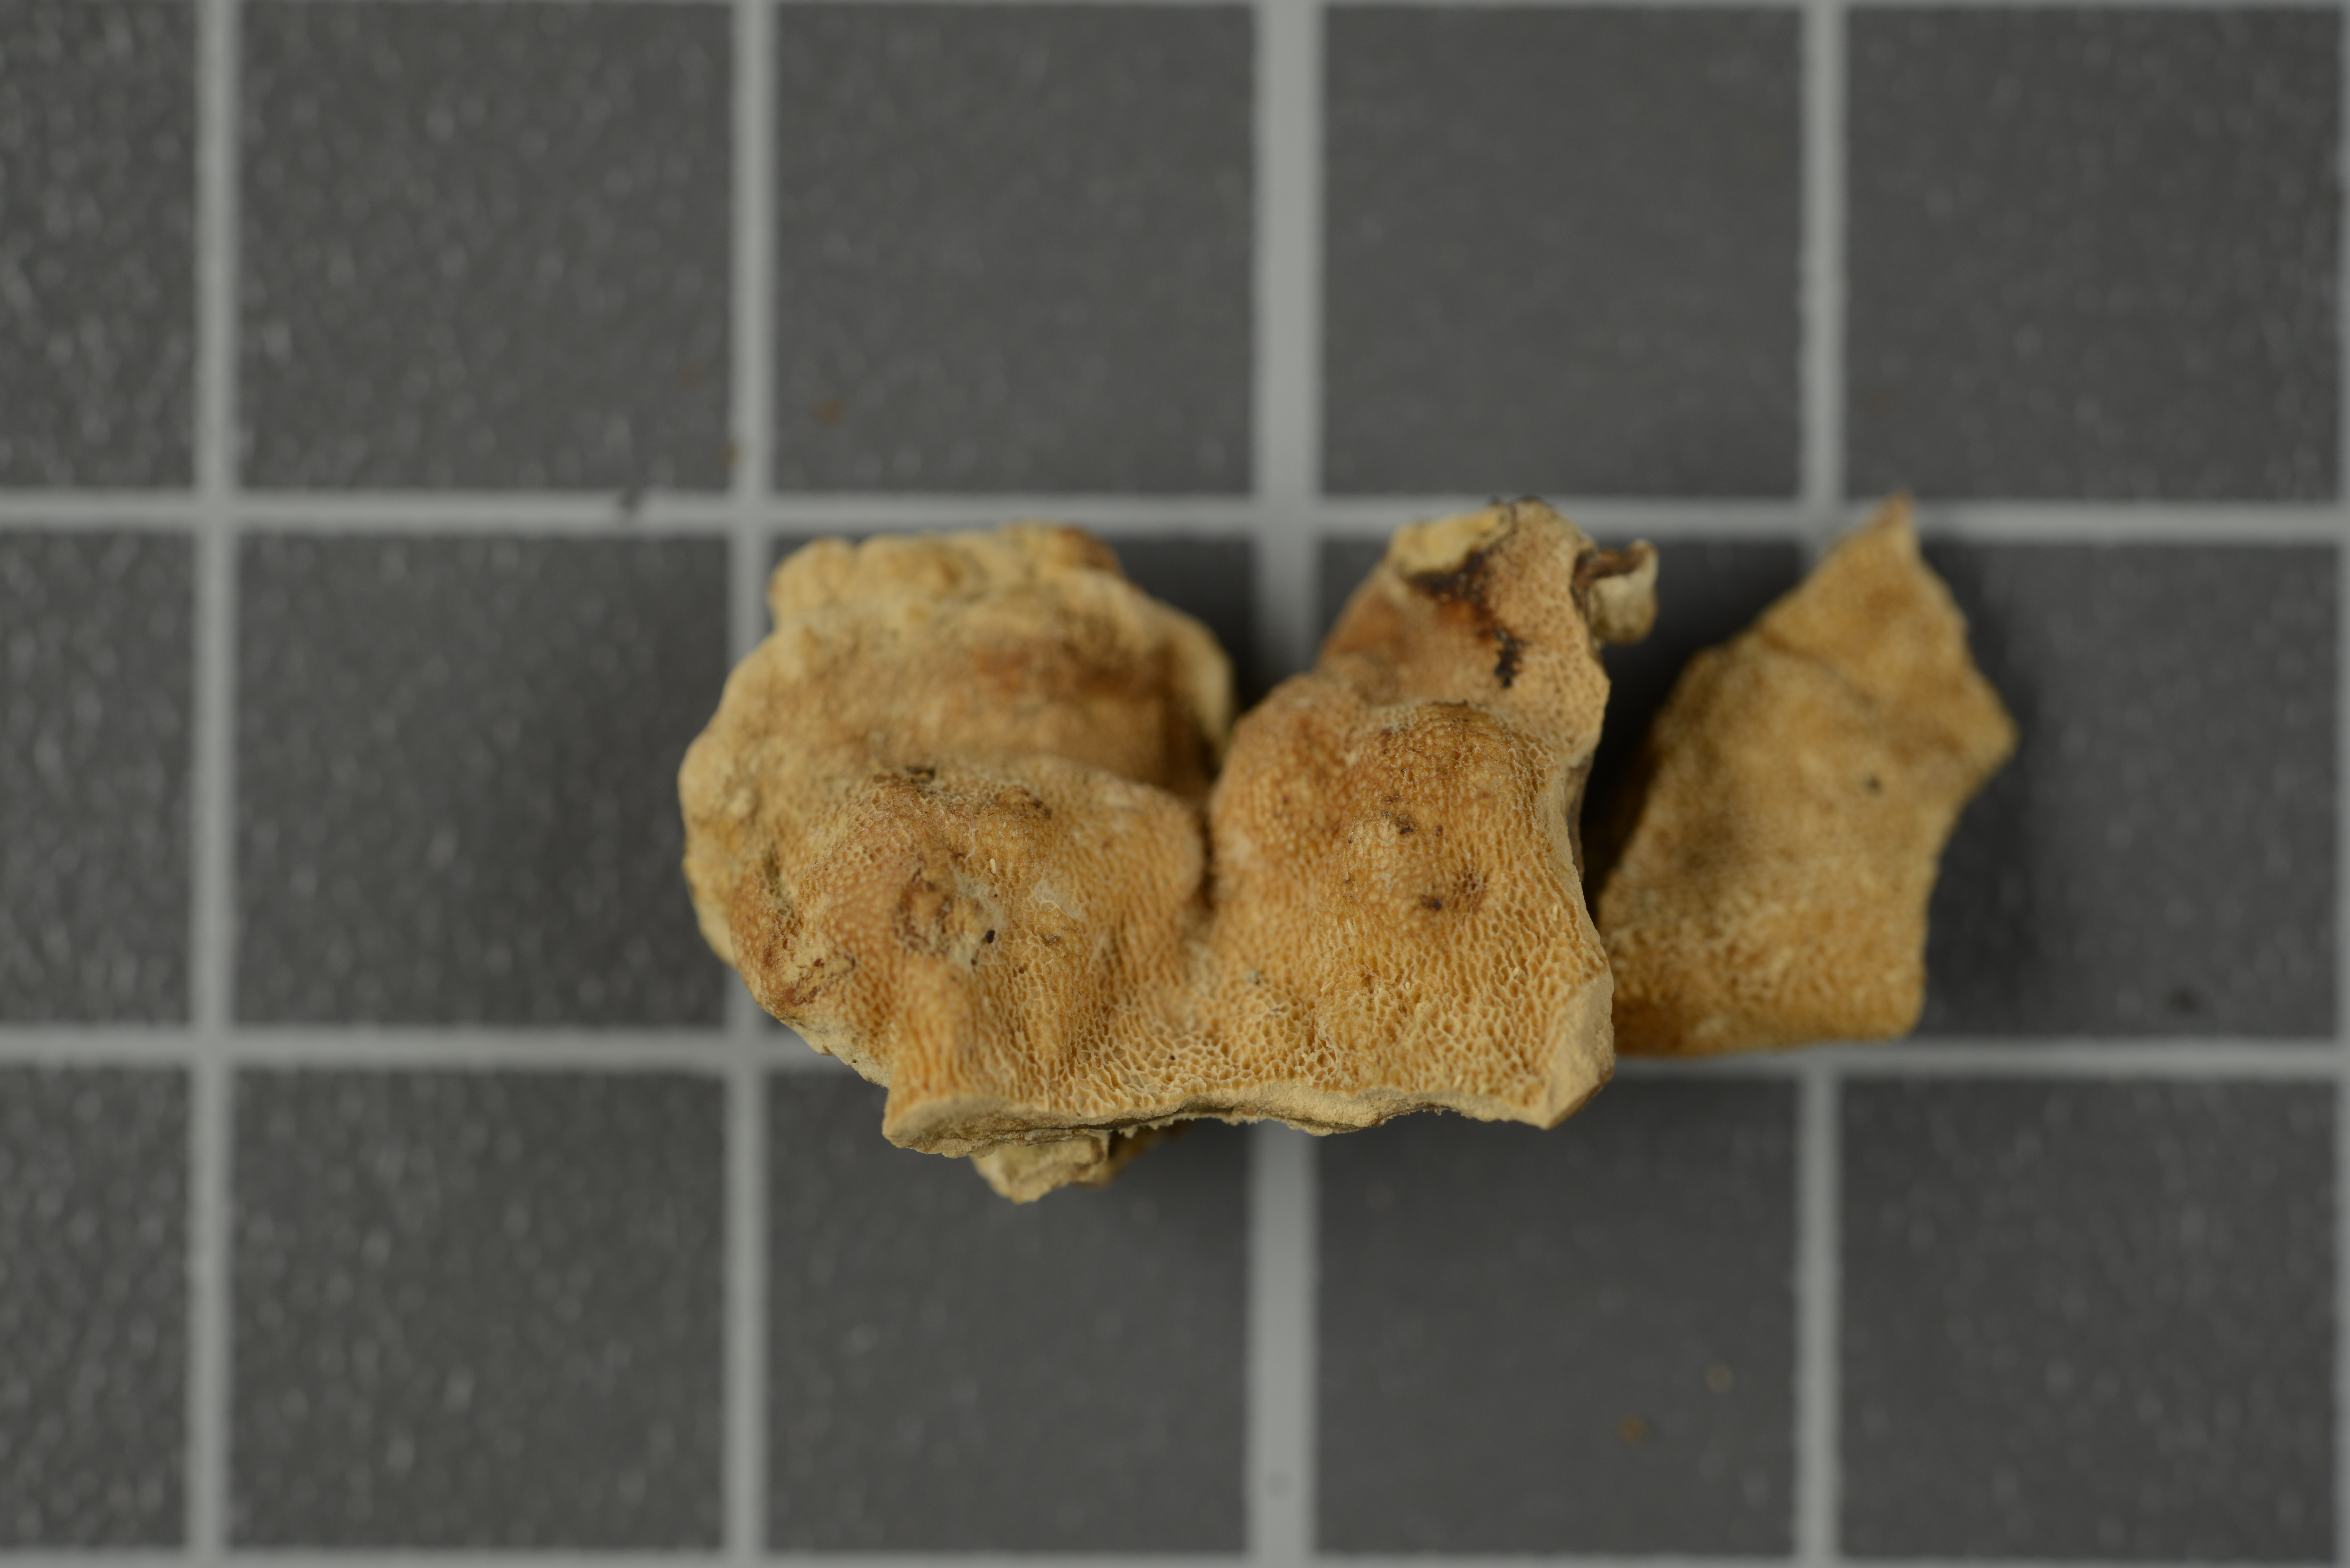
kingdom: Fungi
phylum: Basidiomycota
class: Agaricomycetes
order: Polyporales
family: Laetiporaceae
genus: Laetiporus
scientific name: Laetiporus dilatohyphus
